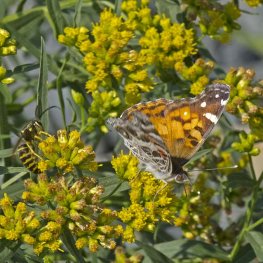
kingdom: Animalia
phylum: Arthropoda
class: Insecta
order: Lepidoptera
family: Nymphalidae
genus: Vanessa
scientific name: Vanessa virginiensis
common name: American Lady
